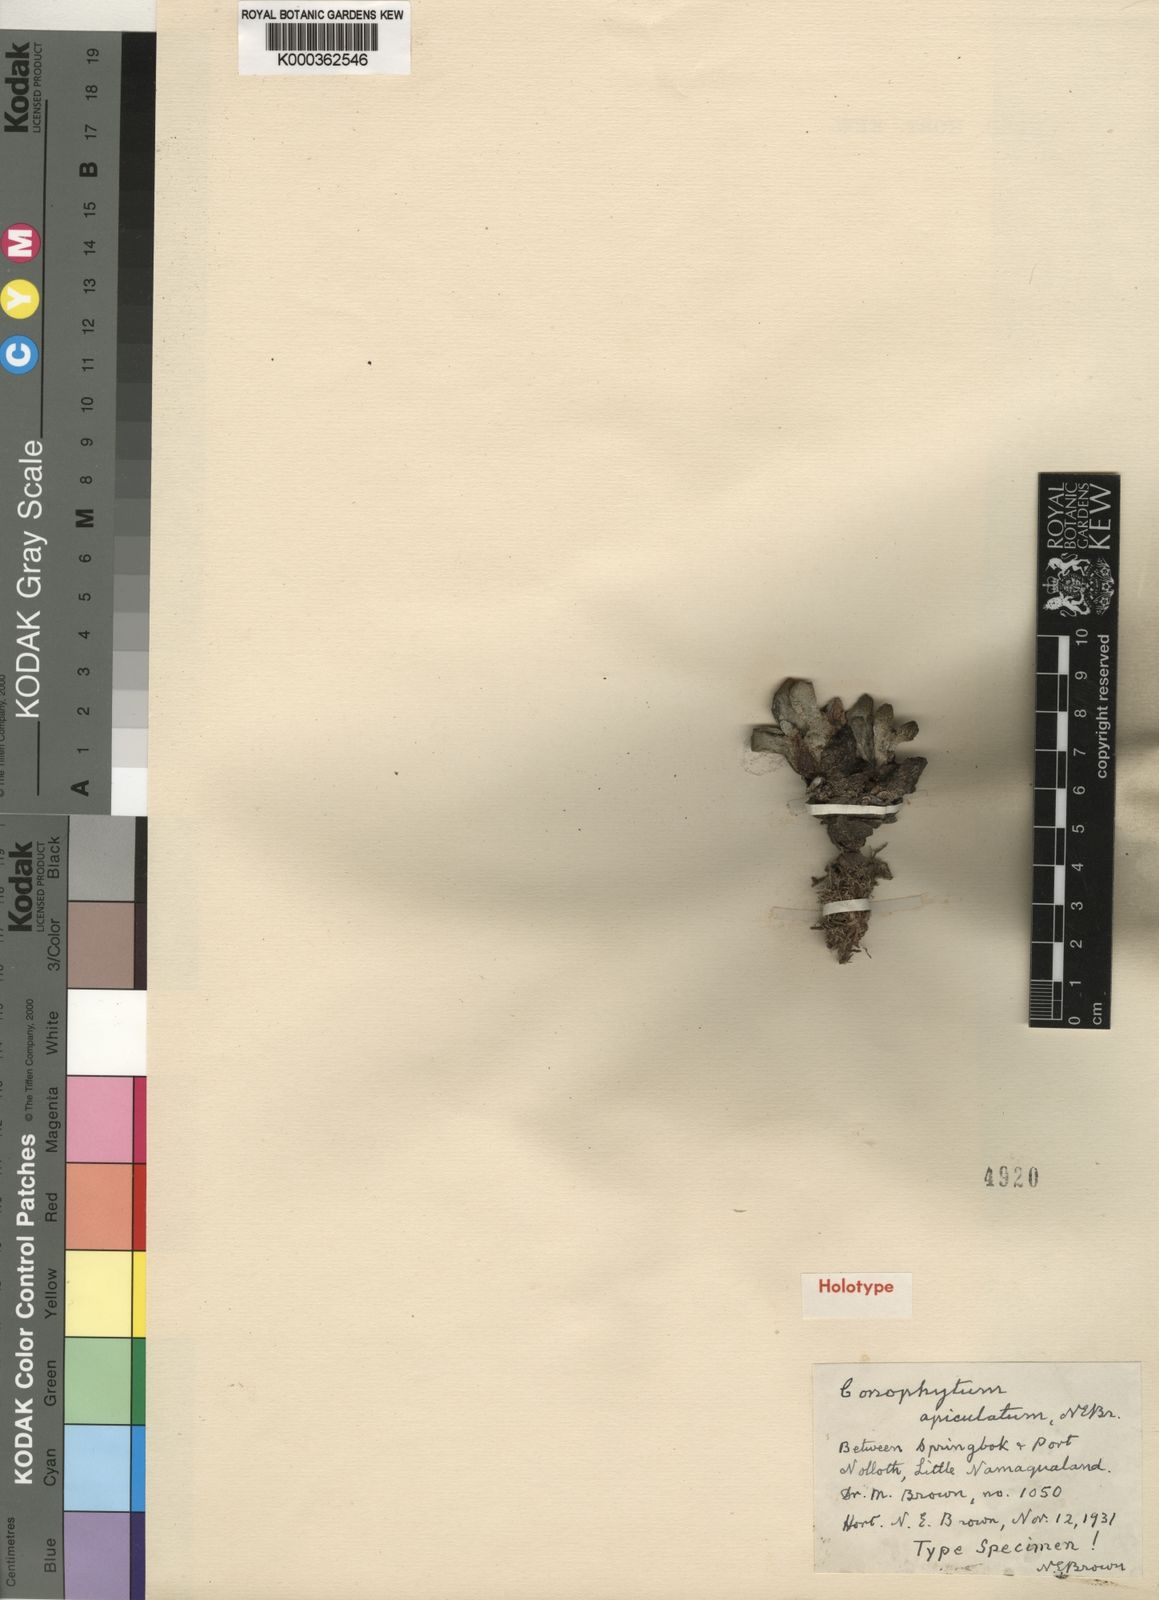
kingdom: Plantae
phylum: Tracheophyta
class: Magnoliopsida
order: Caryophyllales
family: Aizoaceae
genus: Conophytum
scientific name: Conophytum bilobum
